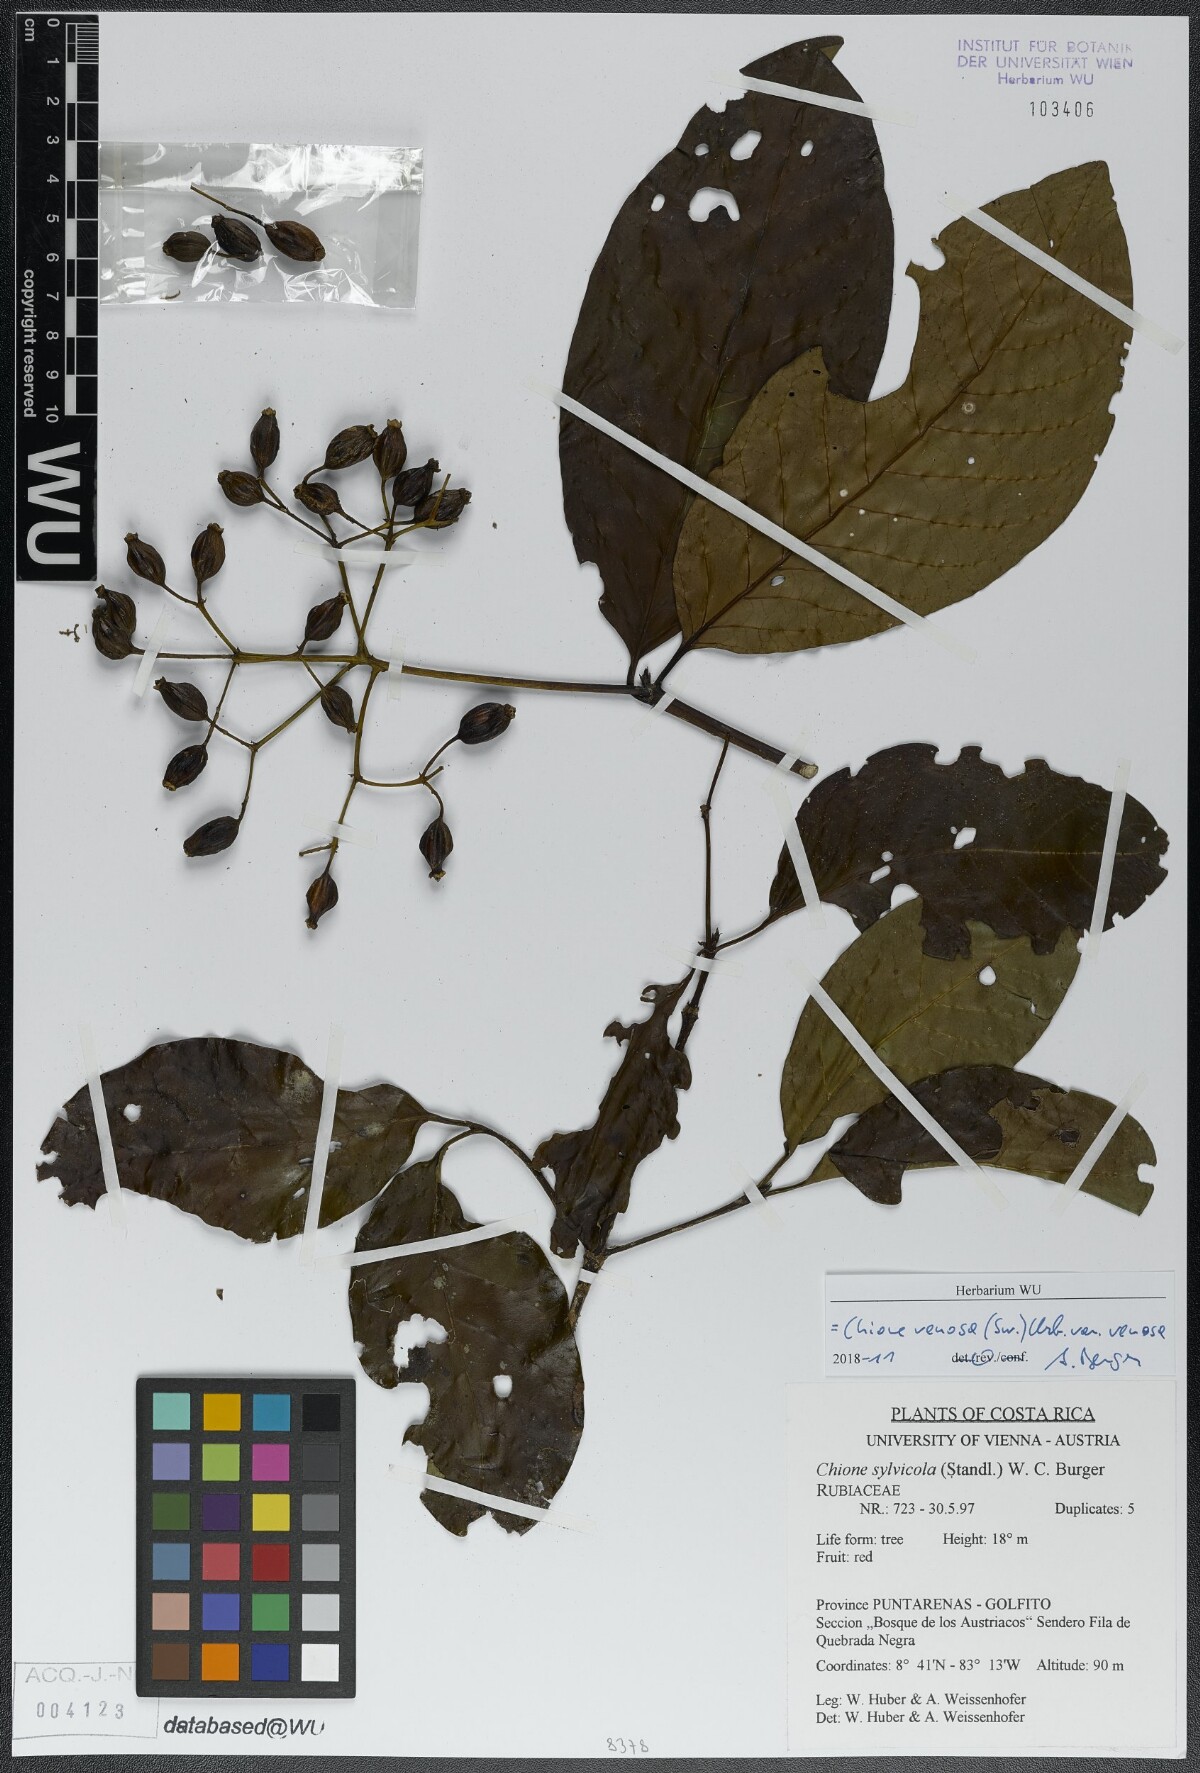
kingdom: Plantae
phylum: Tracheophyta
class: Magnoliopsida
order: Gentianales
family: Rubiaceae
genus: Chione
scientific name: Chione venosa
